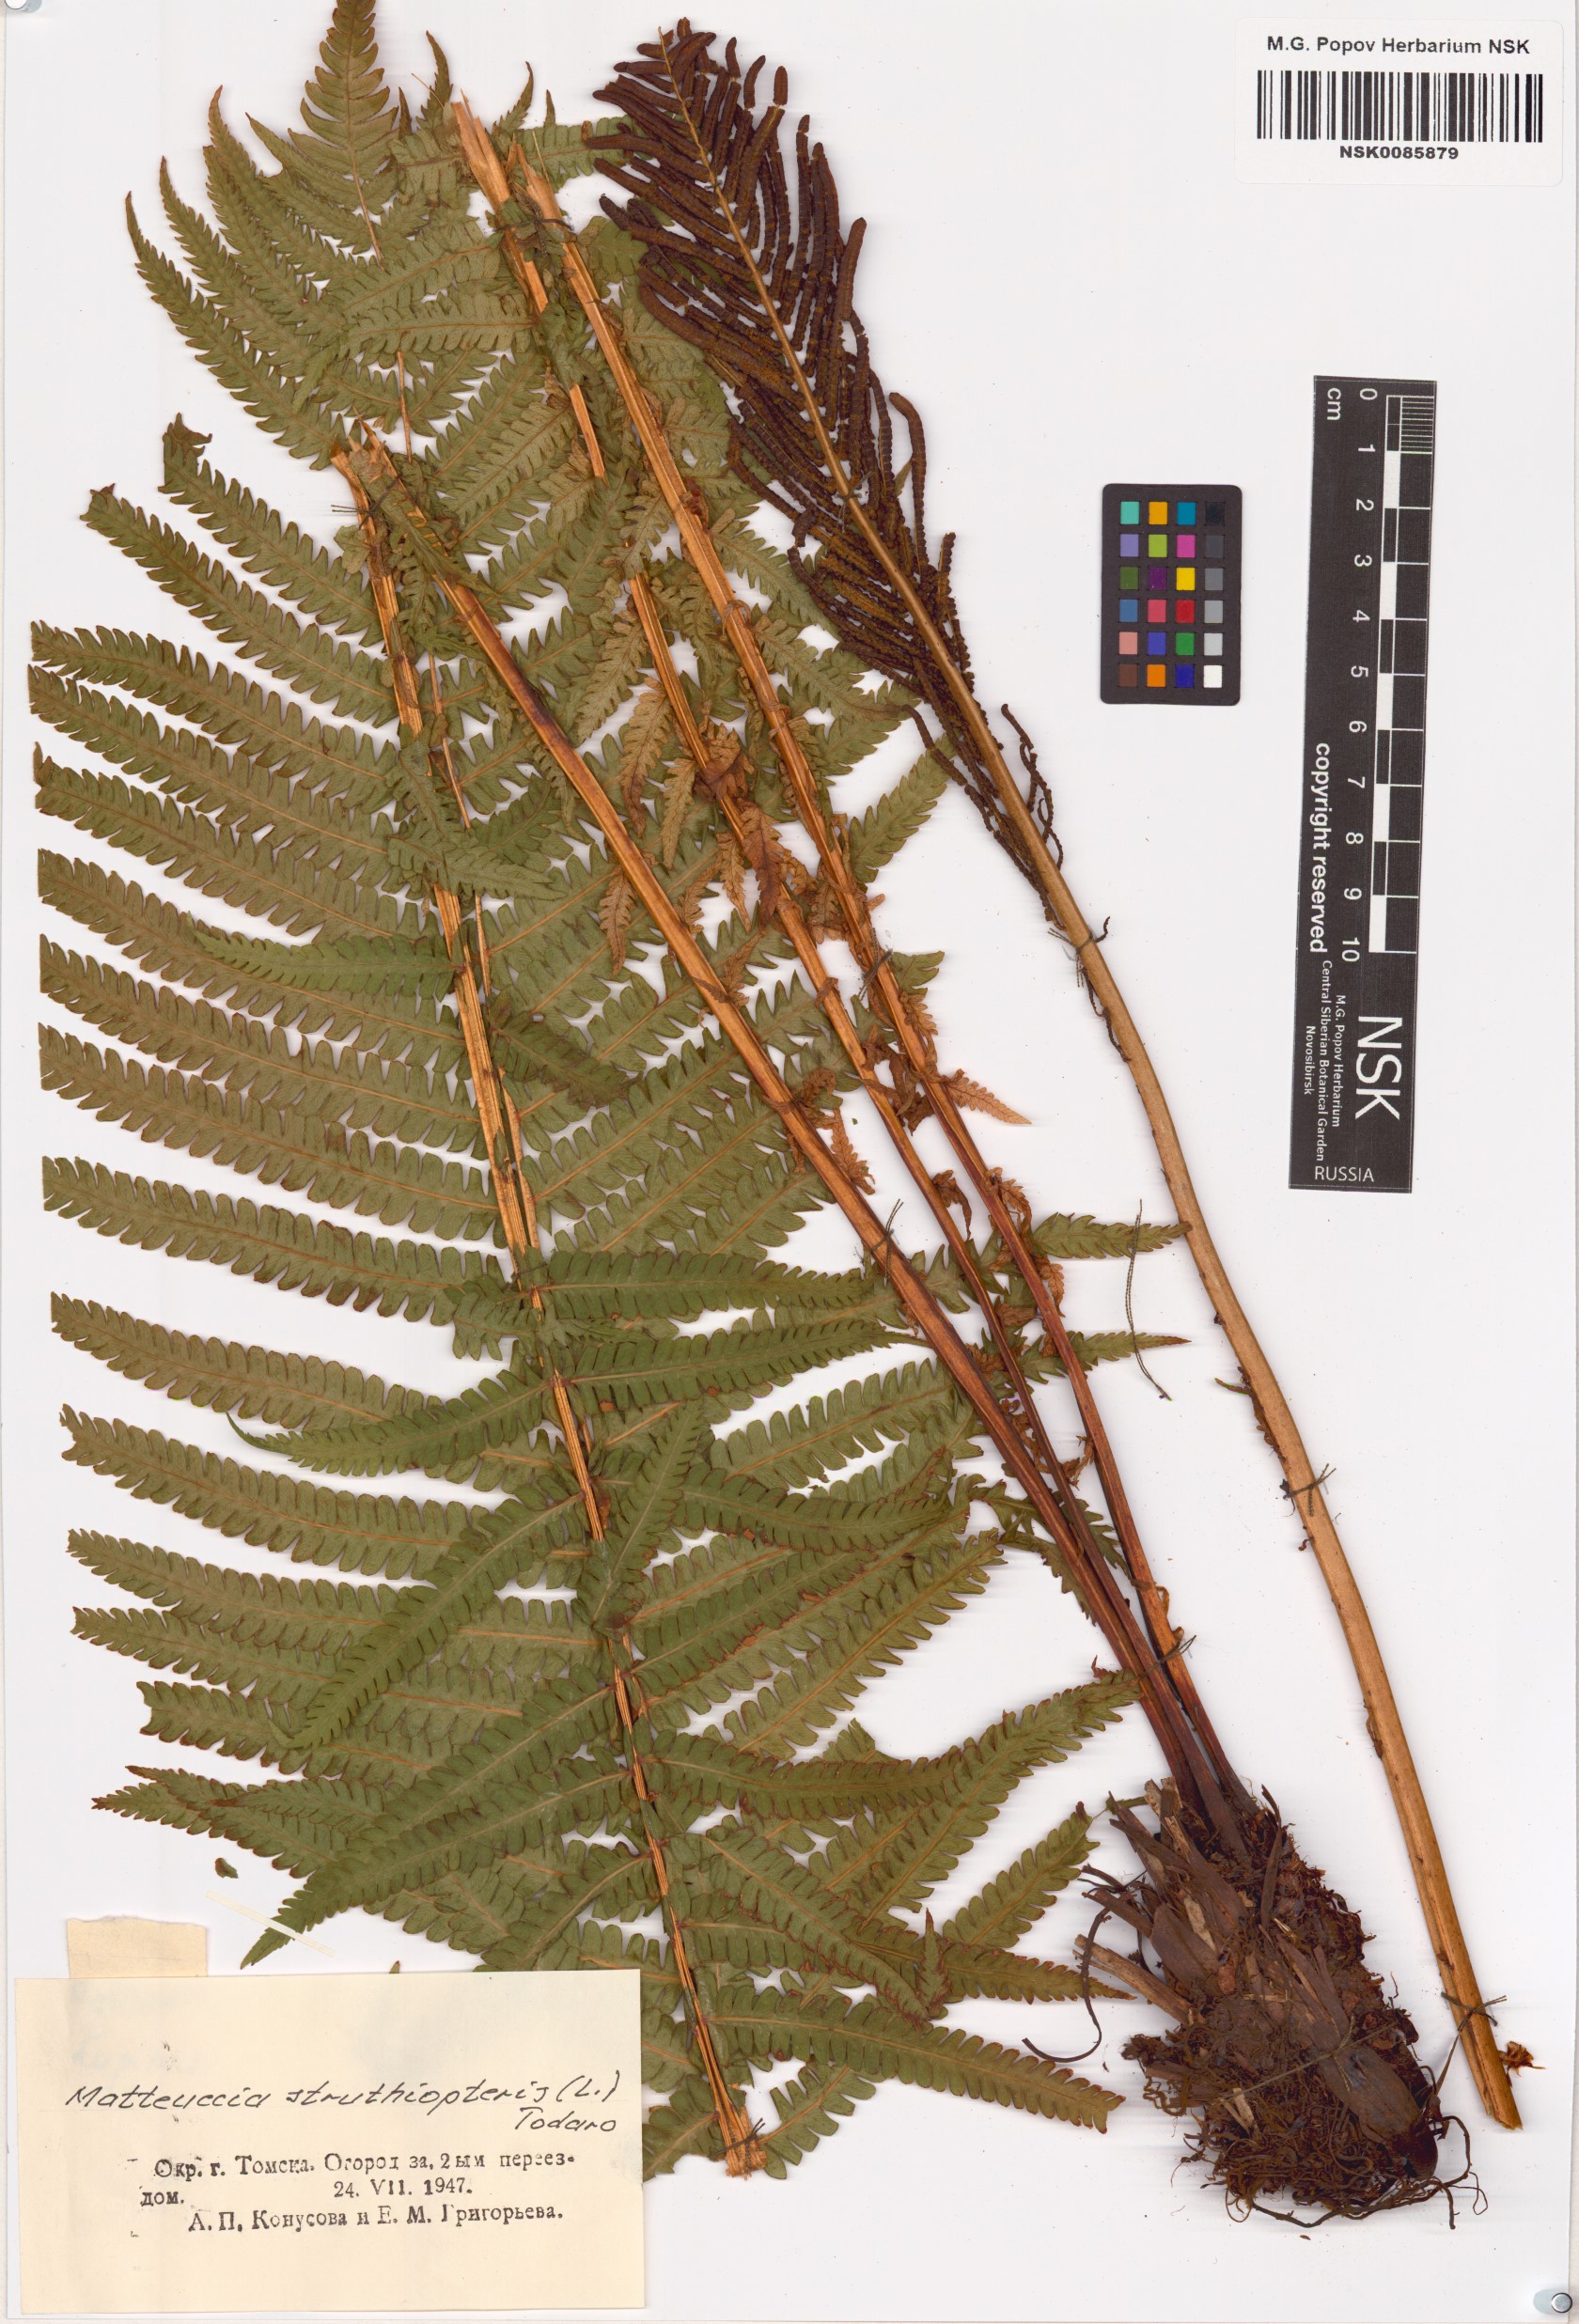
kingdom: Plantae
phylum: Tracheophyta
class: Polypodiopsida
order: Polypodiales
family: Onocleaceae
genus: Matteuccia
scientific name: Matteuccia struthiopteris
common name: Ostrich fern
